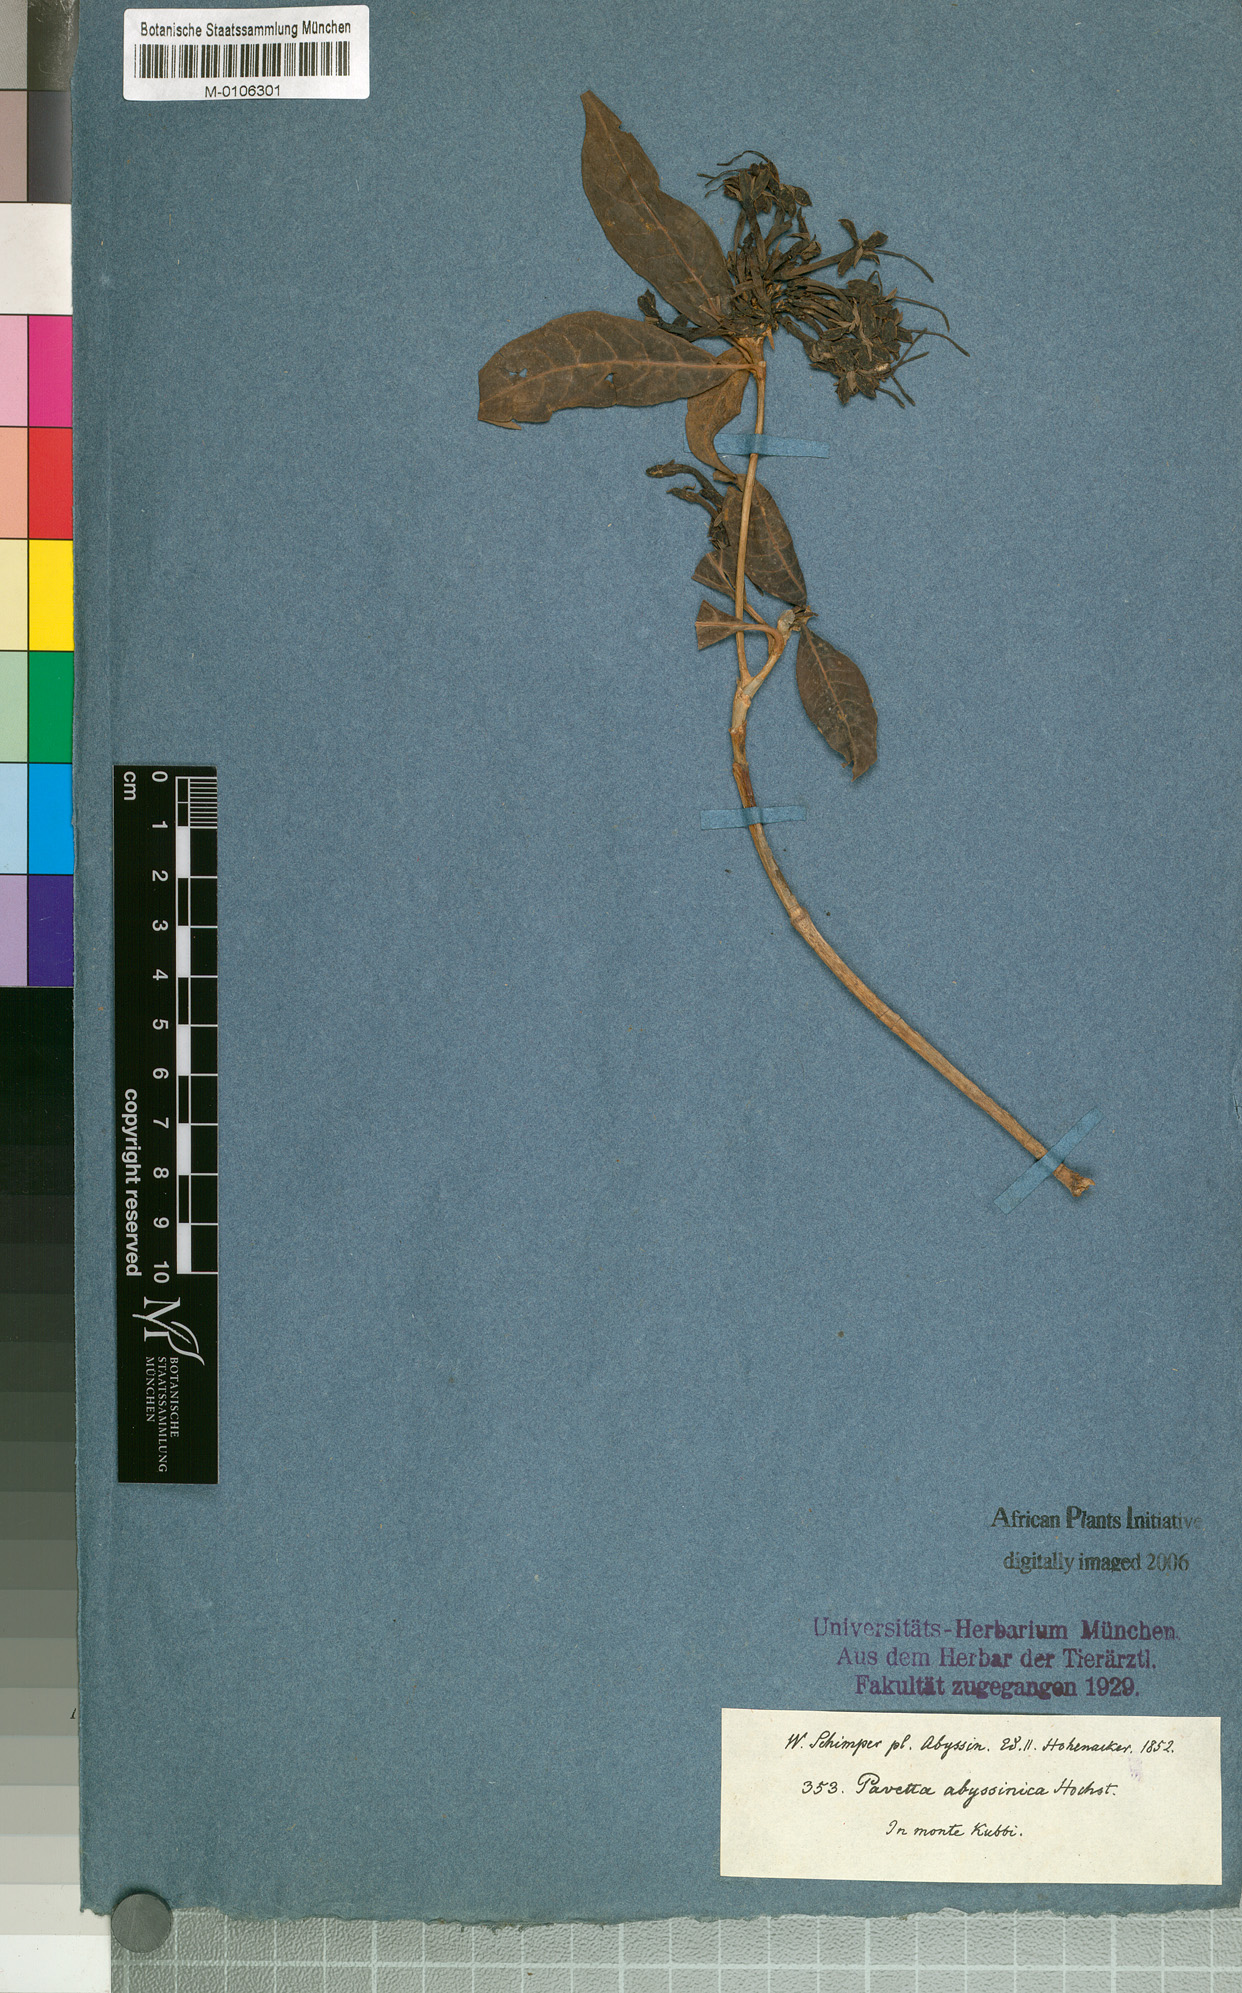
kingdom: Plantae
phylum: Tracheophyta
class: Magnoliopsida
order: Gentianales
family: Rubiaceae
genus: Pavetta
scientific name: Pavetta abyssinica
